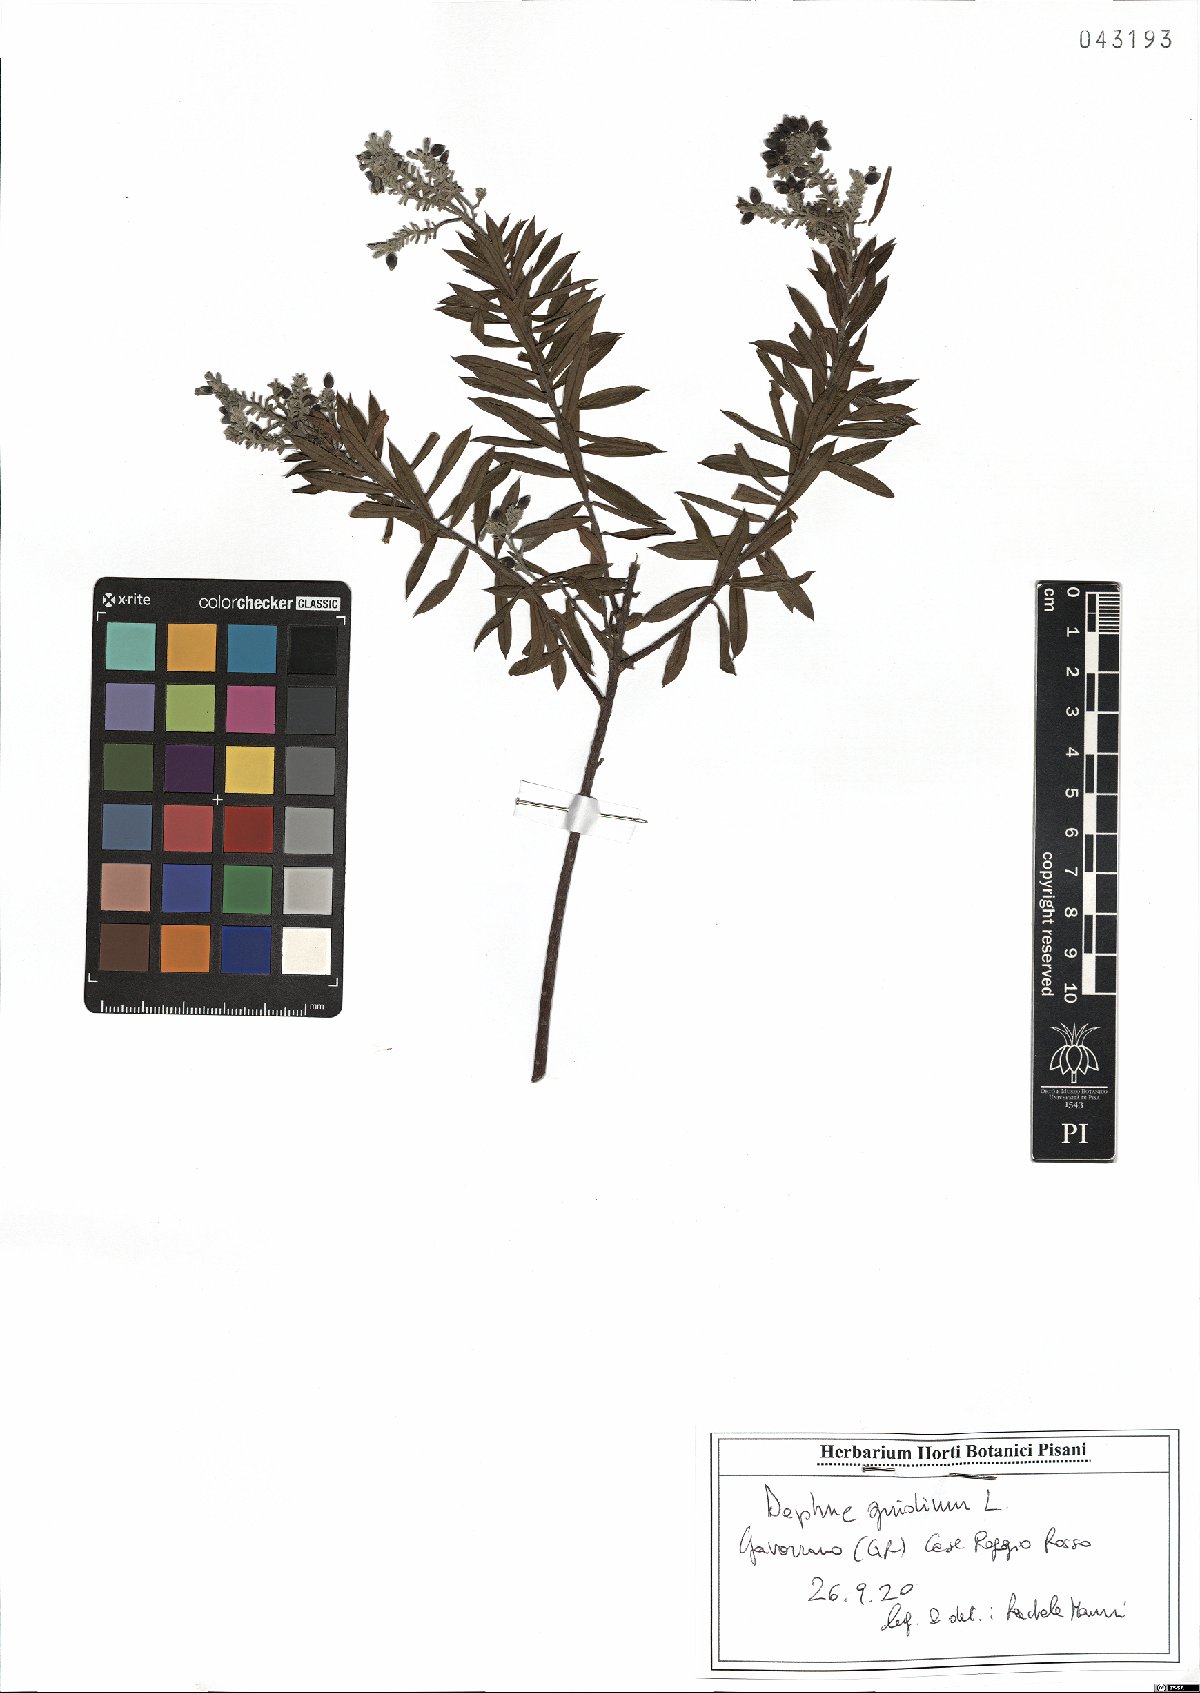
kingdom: Plantae
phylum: Tracheophyta
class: Magnoliopsida
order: Malvales
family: Thymelaeaceae
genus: Daphne
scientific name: Daphne gnidium
